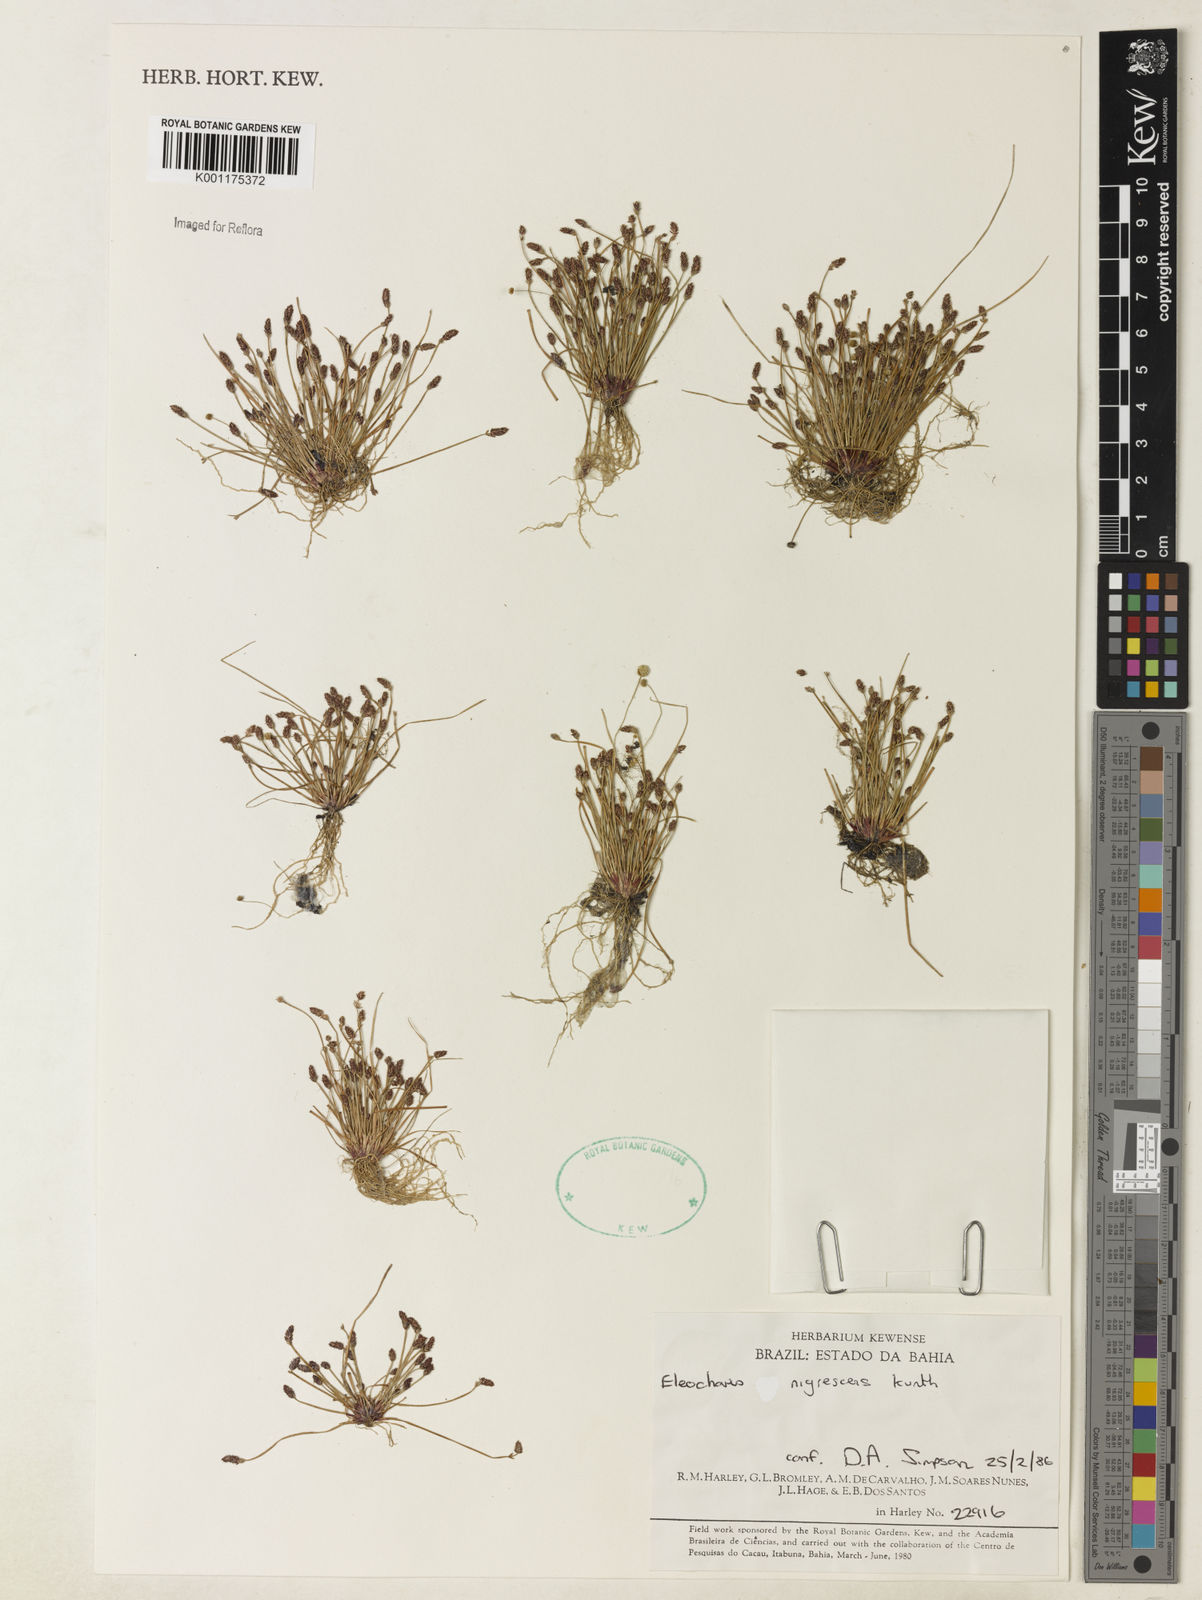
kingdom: Plantae
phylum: Tracheophyta
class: Liliopsida
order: Poales
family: Cyperaceae
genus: Eleocharis
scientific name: Eleocharis nigrescens
